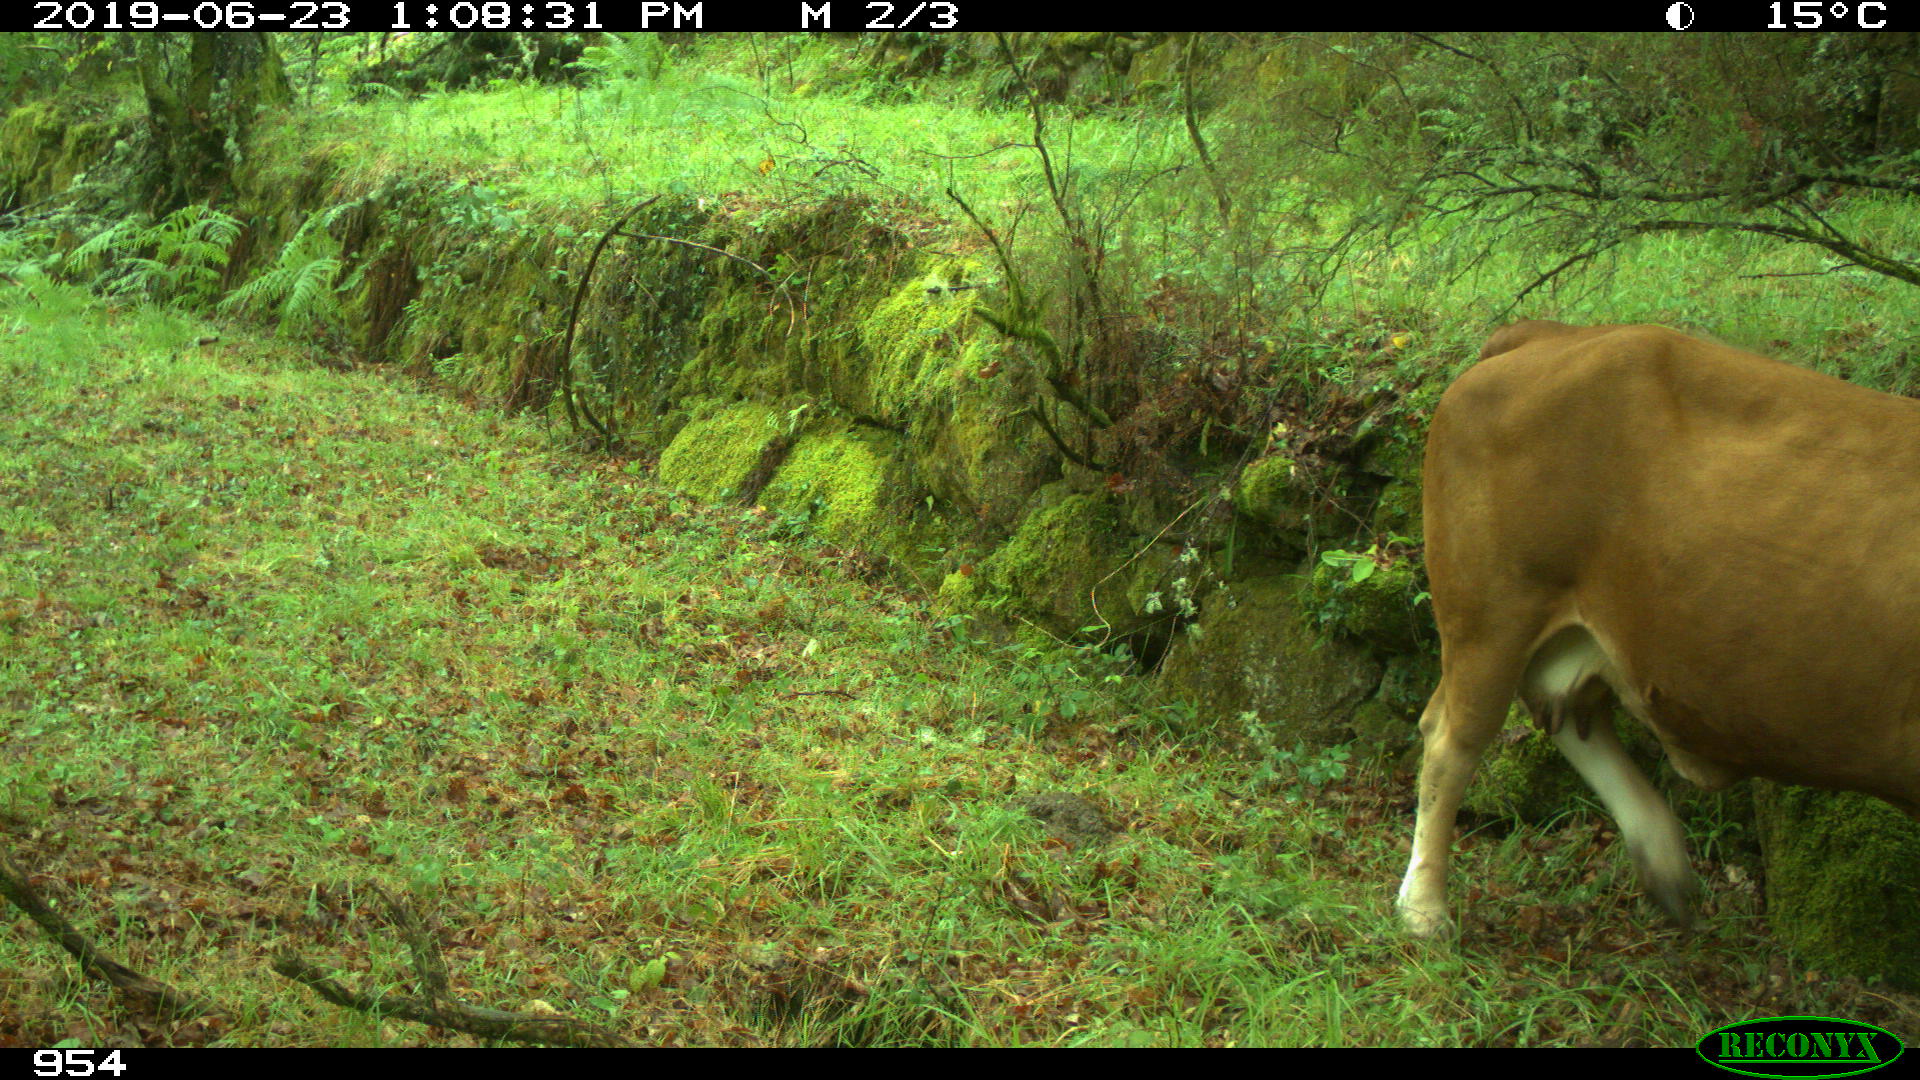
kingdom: Animalia
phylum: Chordata
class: Mammalia
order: Artiodactyla
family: Bovidae
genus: Bos
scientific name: Bos taurus
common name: Domesticated cattle
